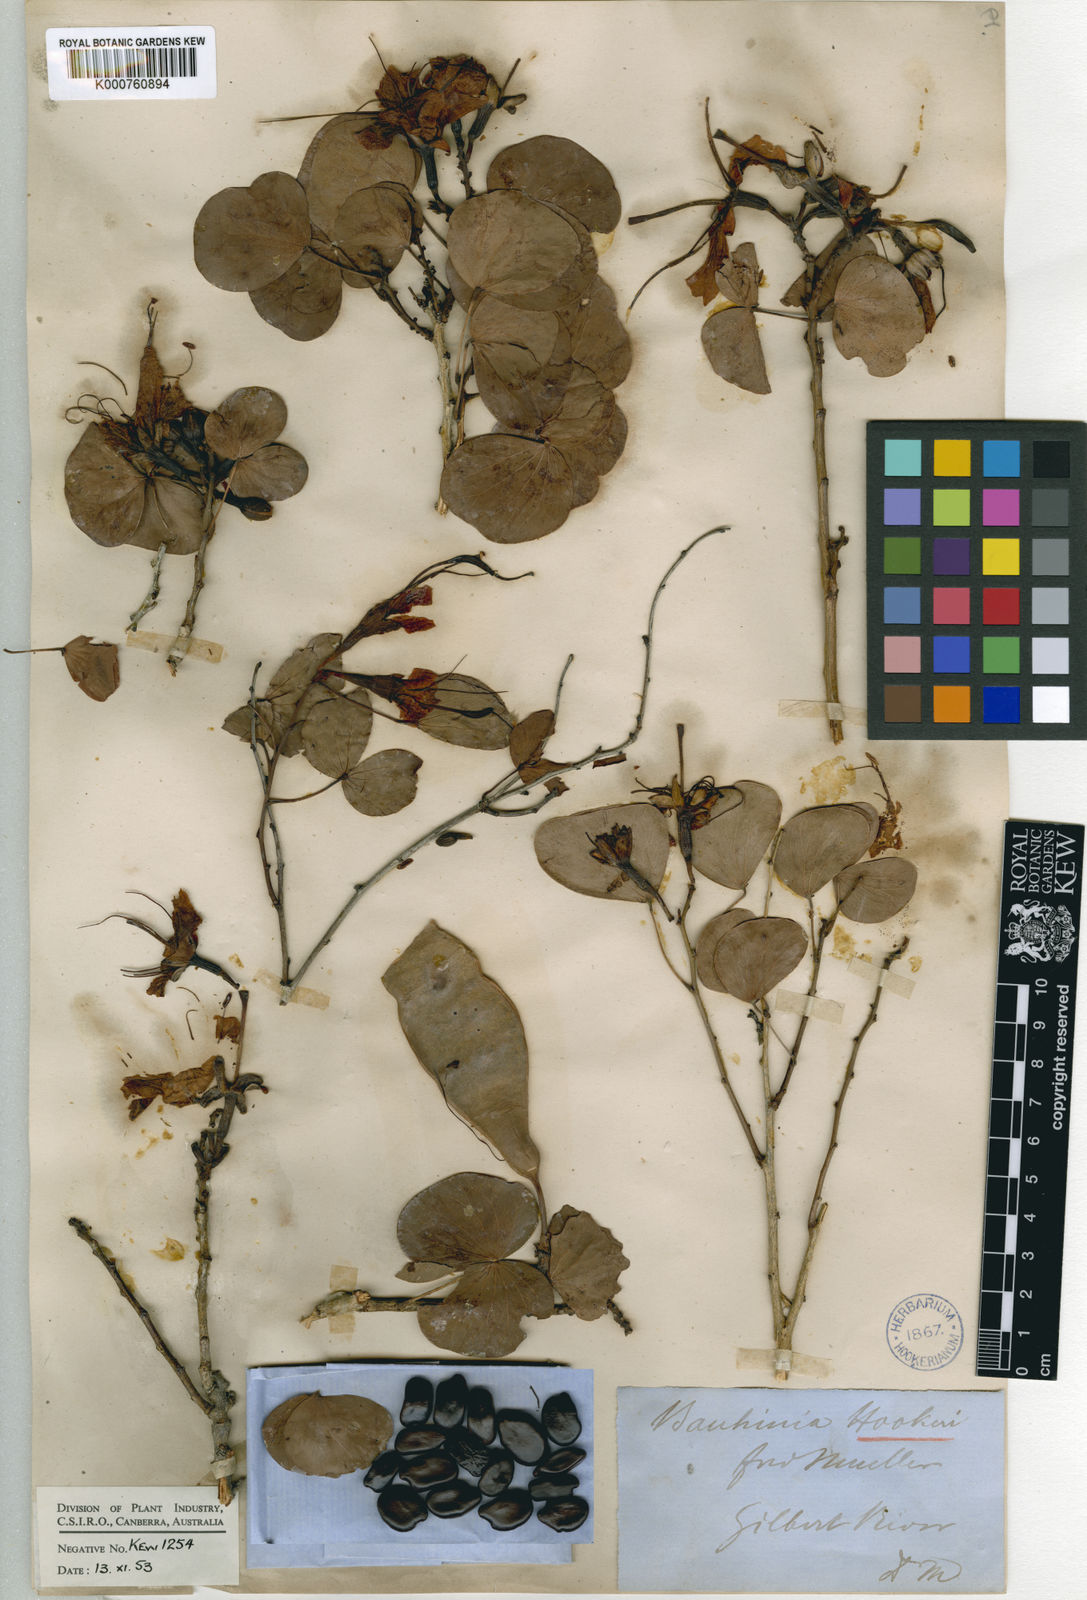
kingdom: Plantae
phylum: Tracheophyta
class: Magnoliopsida
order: Fabales
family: Fabaceae
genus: Lysiphyllum
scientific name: Lysiphyllum hookeri
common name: Hooker's bauhinia
